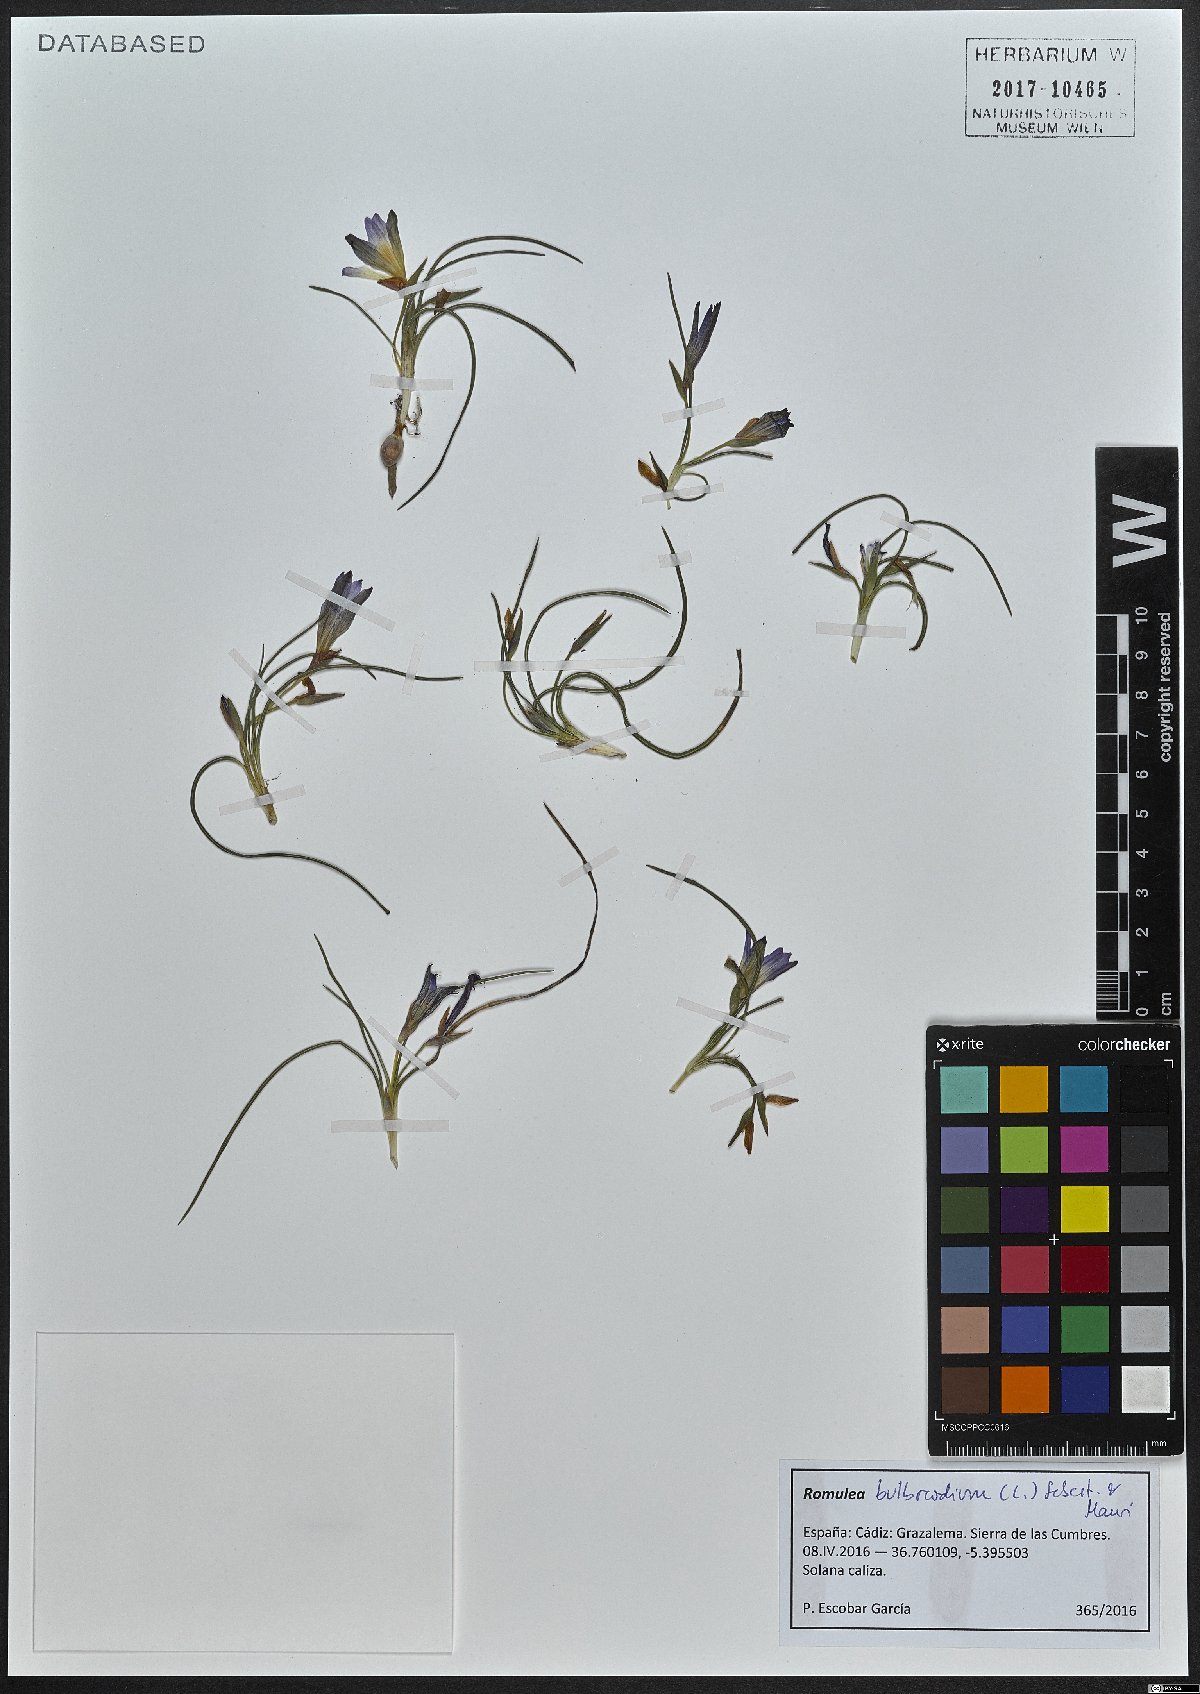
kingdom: Plantae
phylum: Tracheophyta
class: Liliopsida
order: Asparagales
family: Iridaceae
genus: Romulea
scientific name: Romulea bulbocodium
